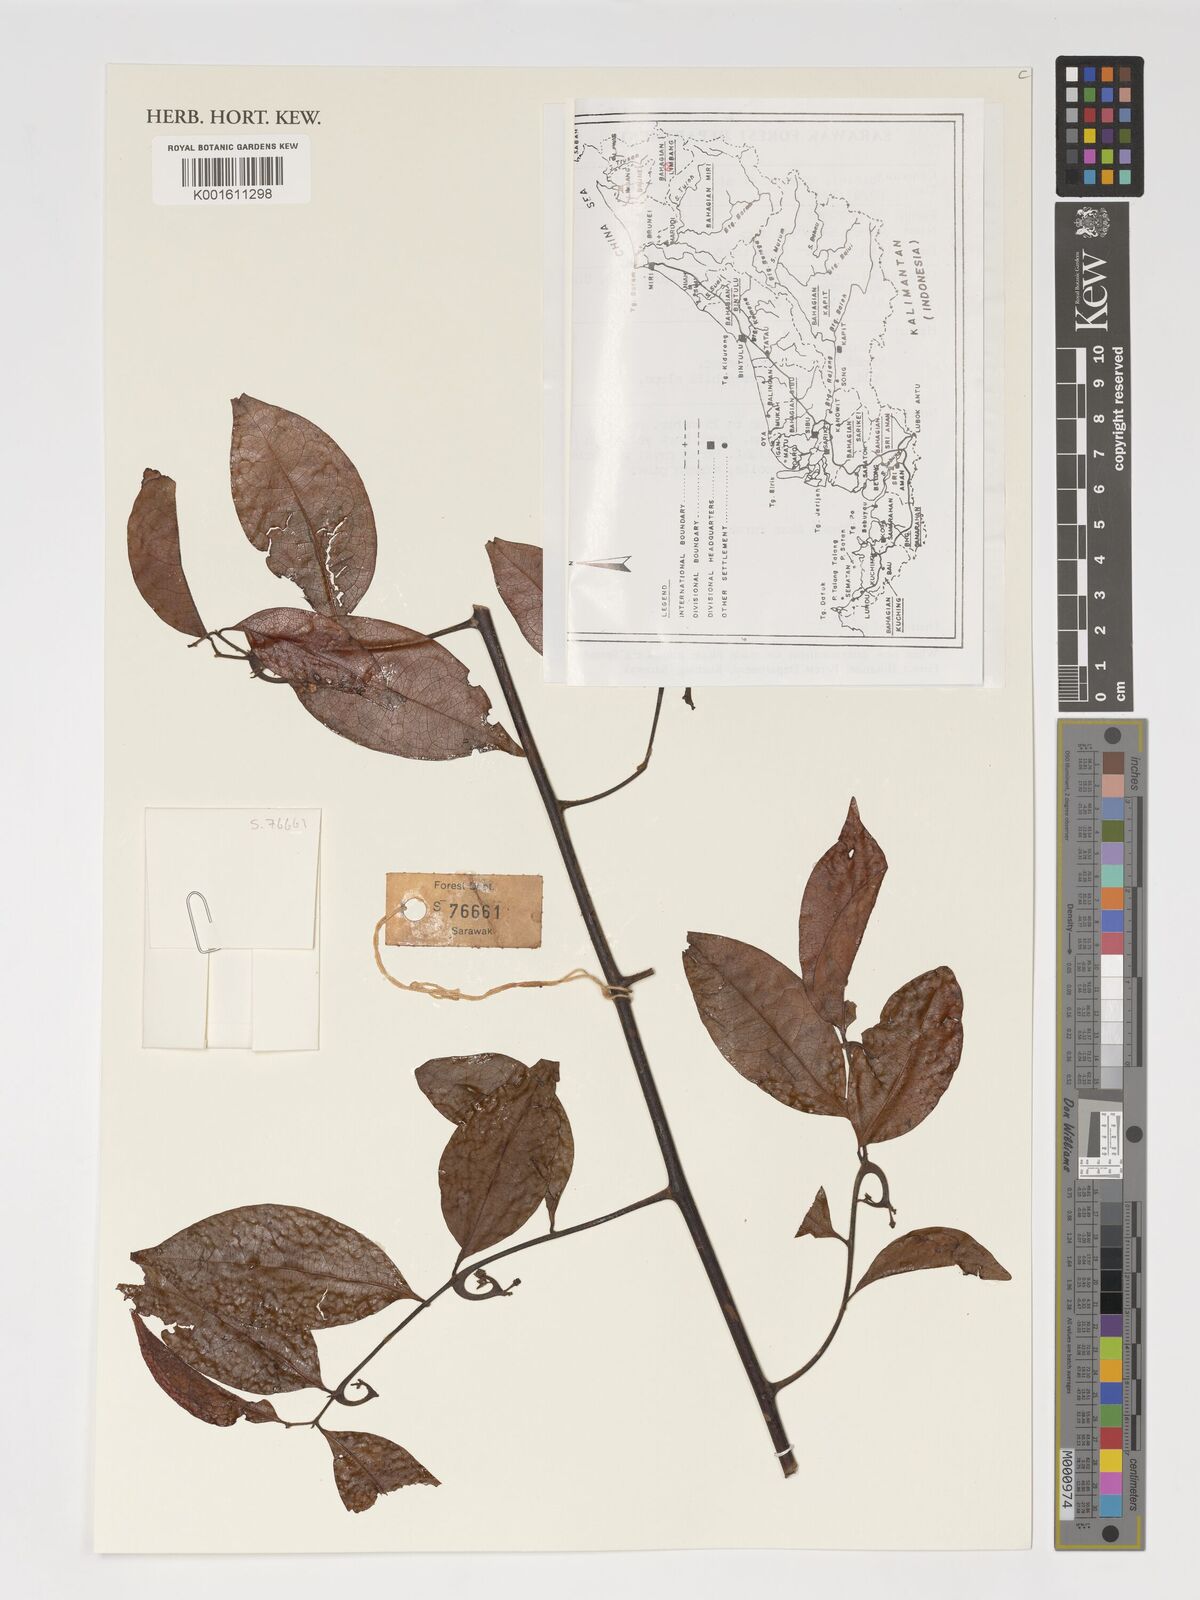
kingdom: Plantae
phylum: Tracheophyta
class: Magnoliopsida
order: Magnoliales
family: Annonaceae
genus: Artabotrys
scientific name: Artabotrys
